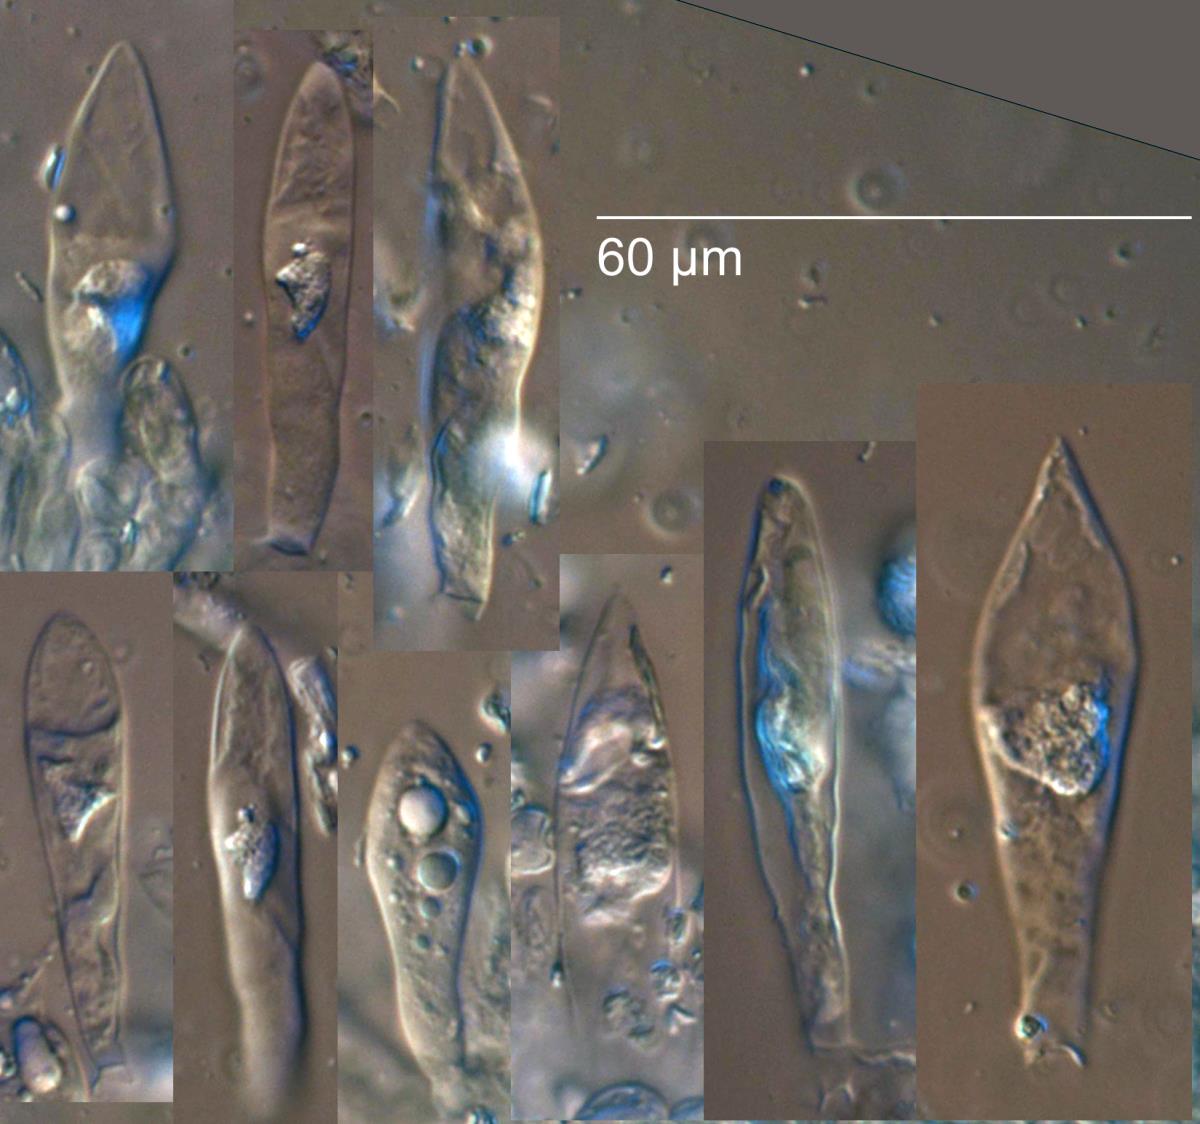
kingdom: Fungi
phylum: Basidiomycota
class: Agaricomycetes
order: Russulales
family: Russulaceae
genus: Russula
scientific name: Russula roseostipitata
